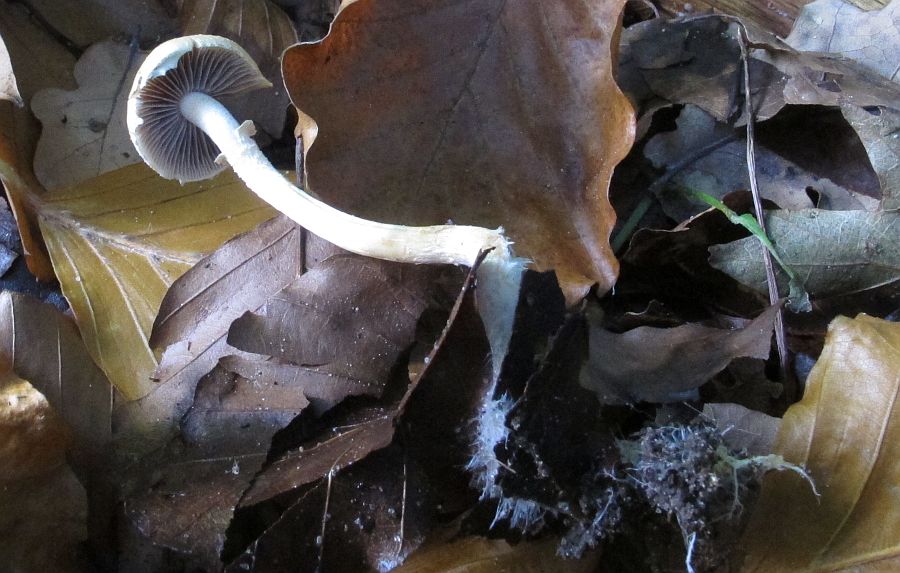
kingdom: Fungi
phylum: Basidiomycota
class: Agaricomycetes
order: Agaricales
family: Strophariaceae
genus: Leratiomyces
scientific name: Leratiomyces squamosus
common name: skællet bredblad
